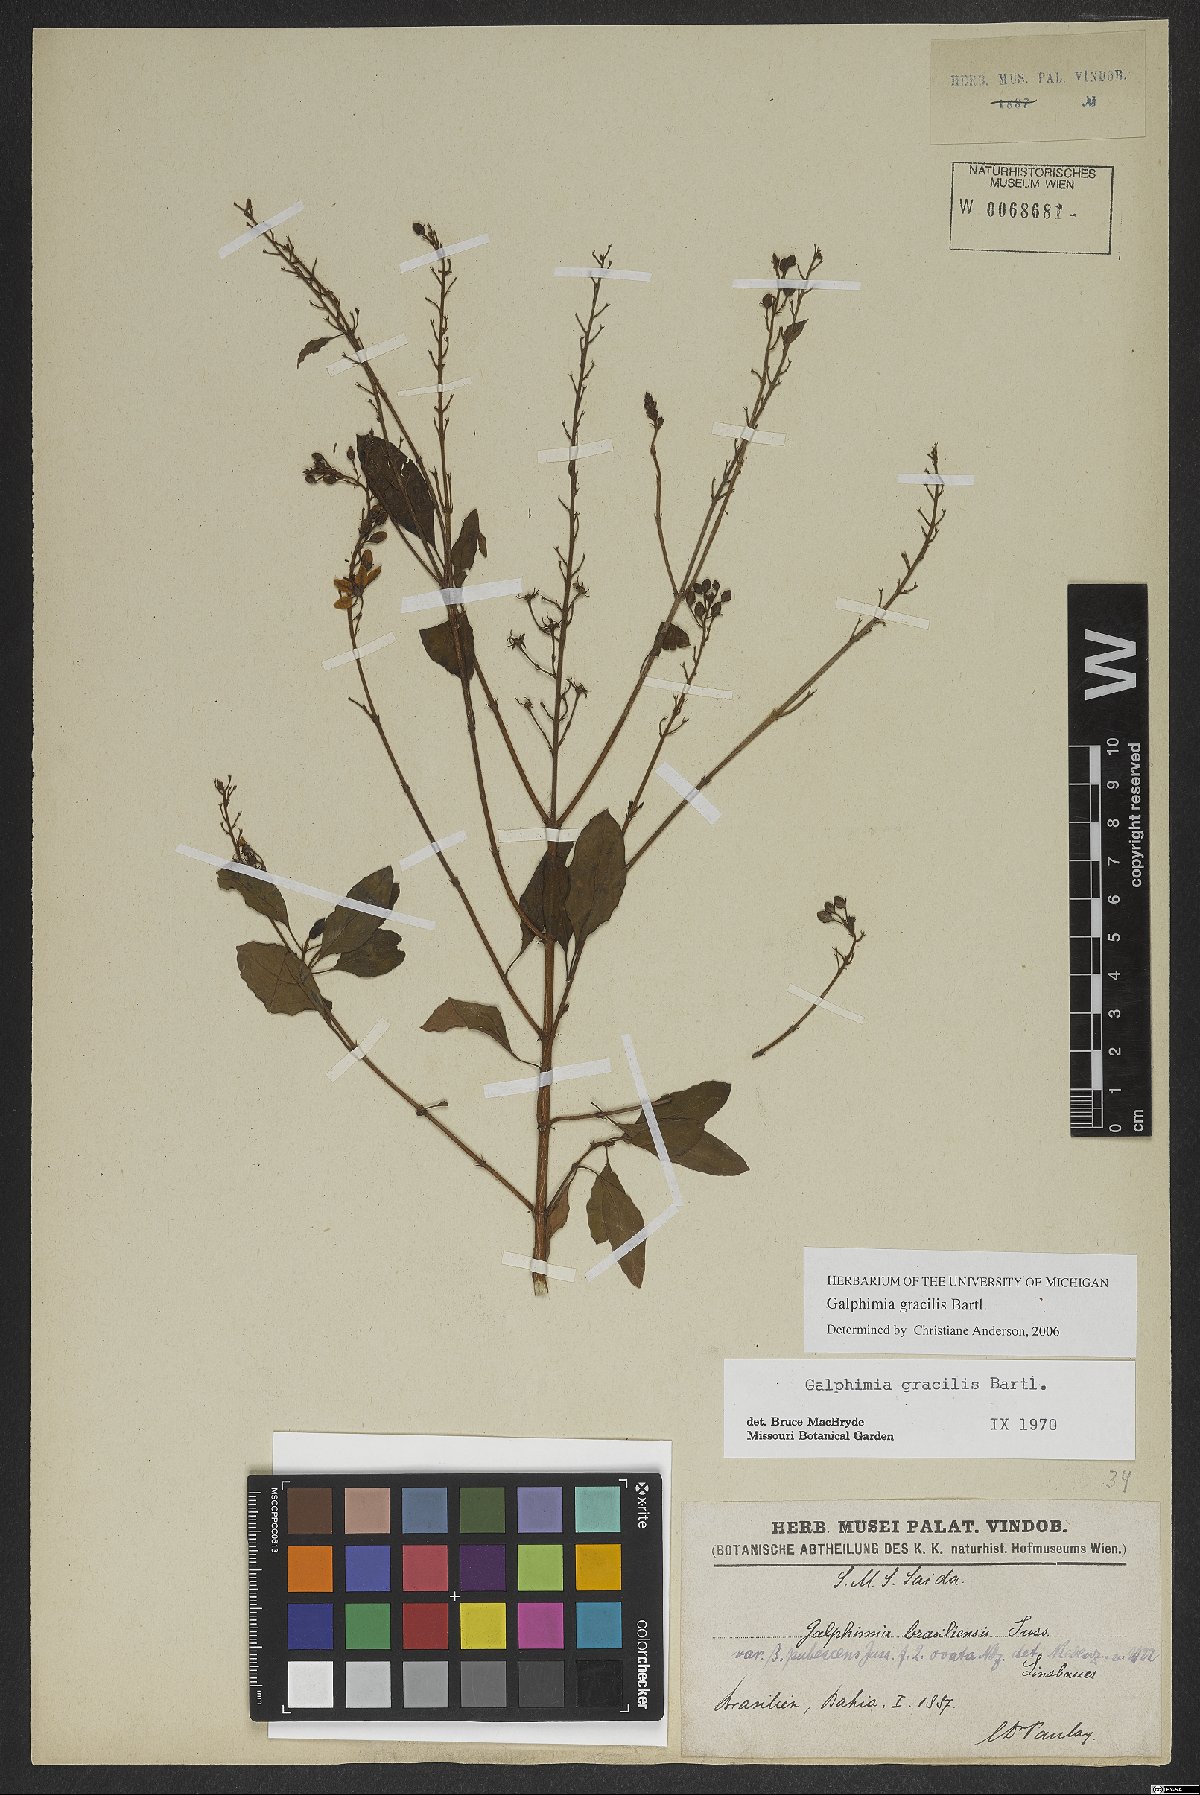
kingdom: Plantae
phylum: Tracheophyta
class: Magnoliopsida
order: Malpighiales
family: Malpighiaceae
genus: Galphimia
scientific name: Galphimia gracilis
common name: Slender goldshower
